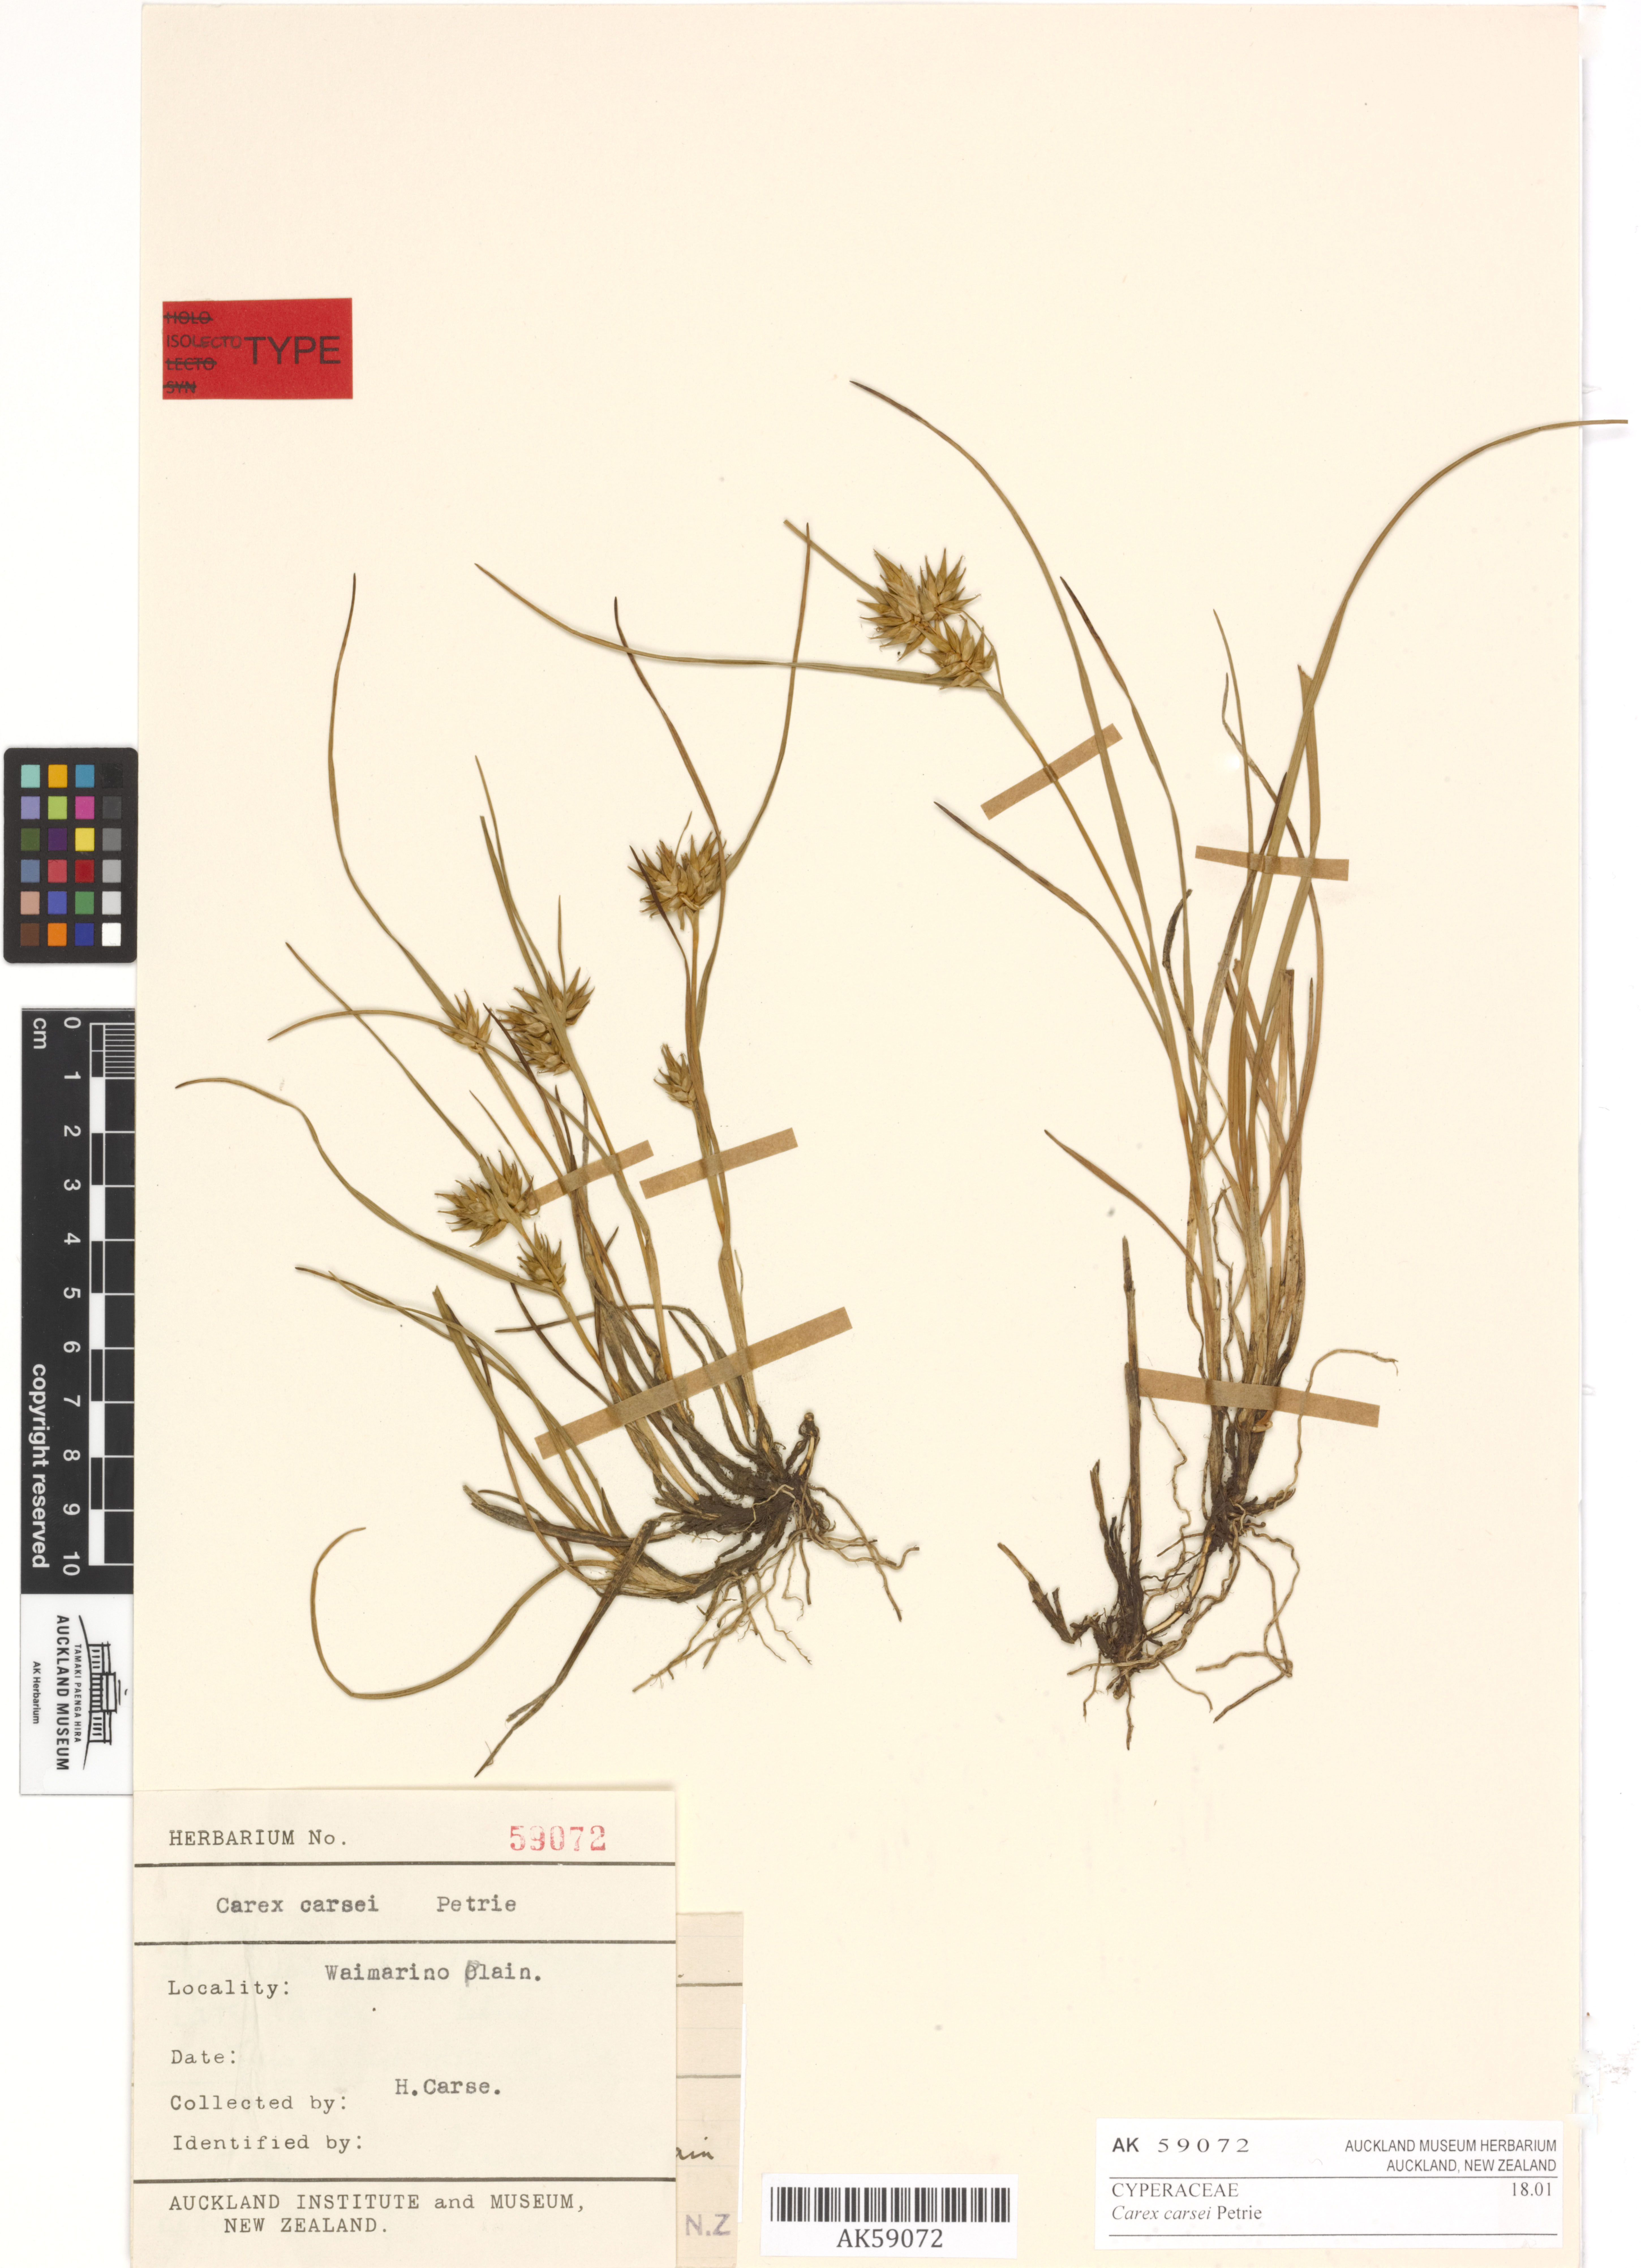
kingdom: Plantae
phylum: Tracheophyta
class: Liliopsida
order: Poales
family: Cyperaceae
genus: Carex
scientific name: Carex carsei
